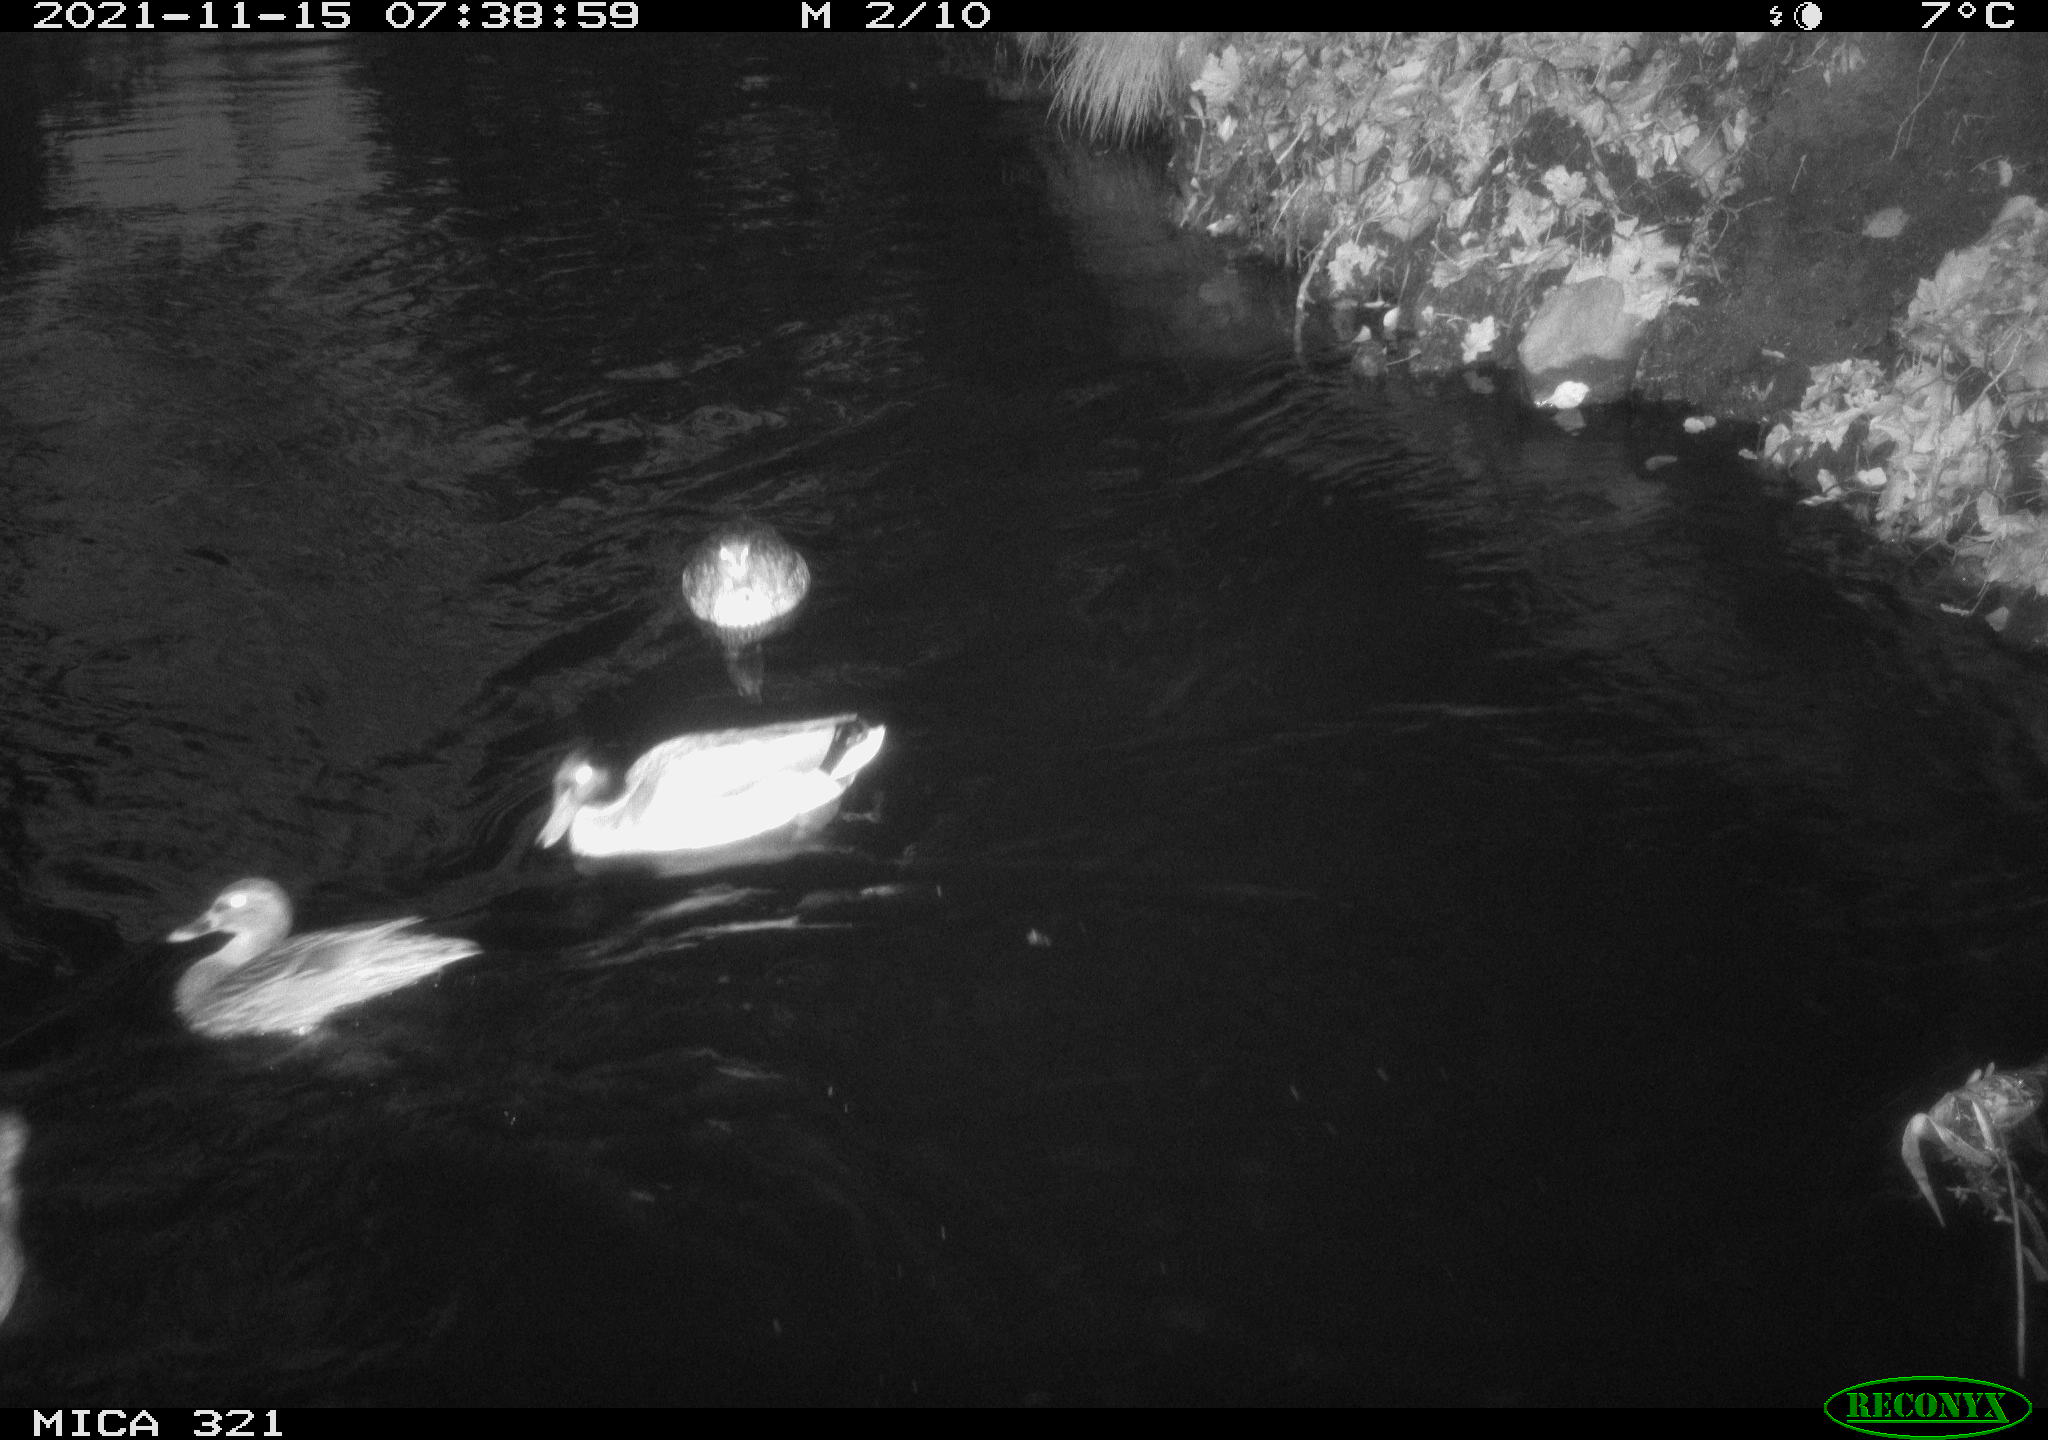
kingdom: Animalia
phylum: Chordata
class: Aves
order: Anseriformes
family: Anatidae
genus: Anas
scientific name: Anas platyrhynchos
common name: Mallard
